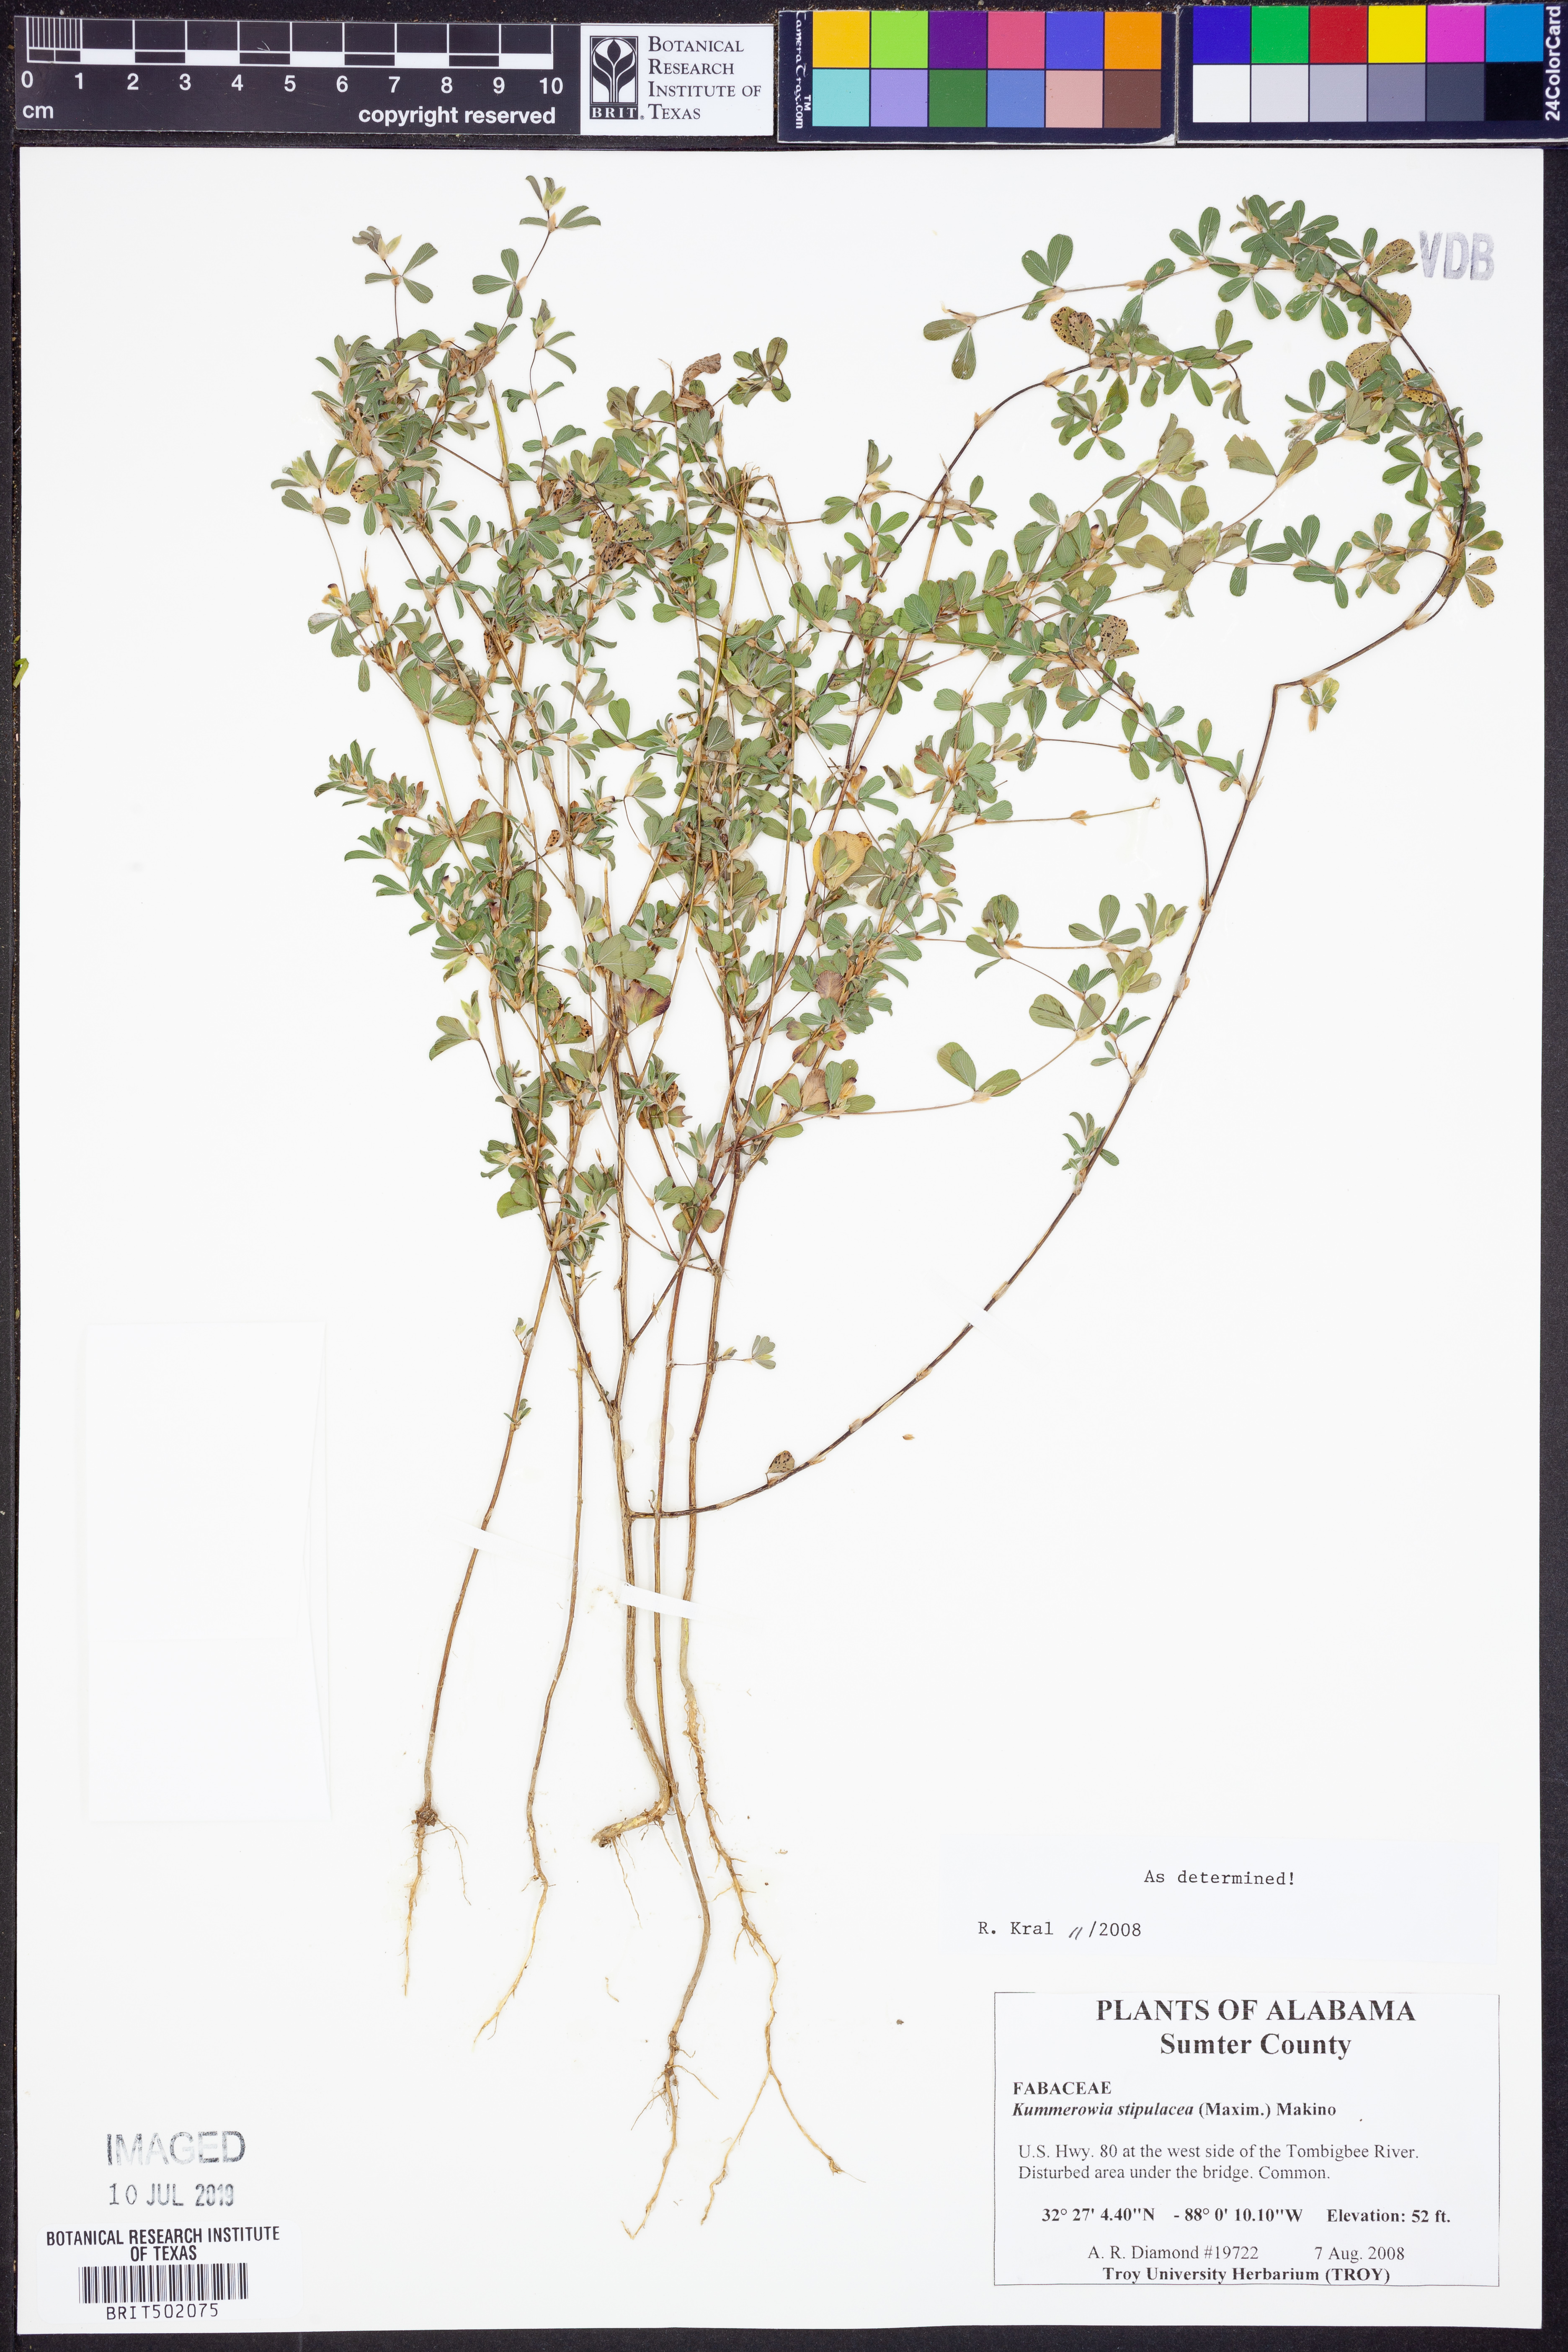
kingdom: Plantae
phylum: Tracheophyta
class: Magnoliopsida
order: Fabales
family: Fabaceae
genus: Kummerowia
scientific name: Kummerowia stipulacea
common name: Korean clover
